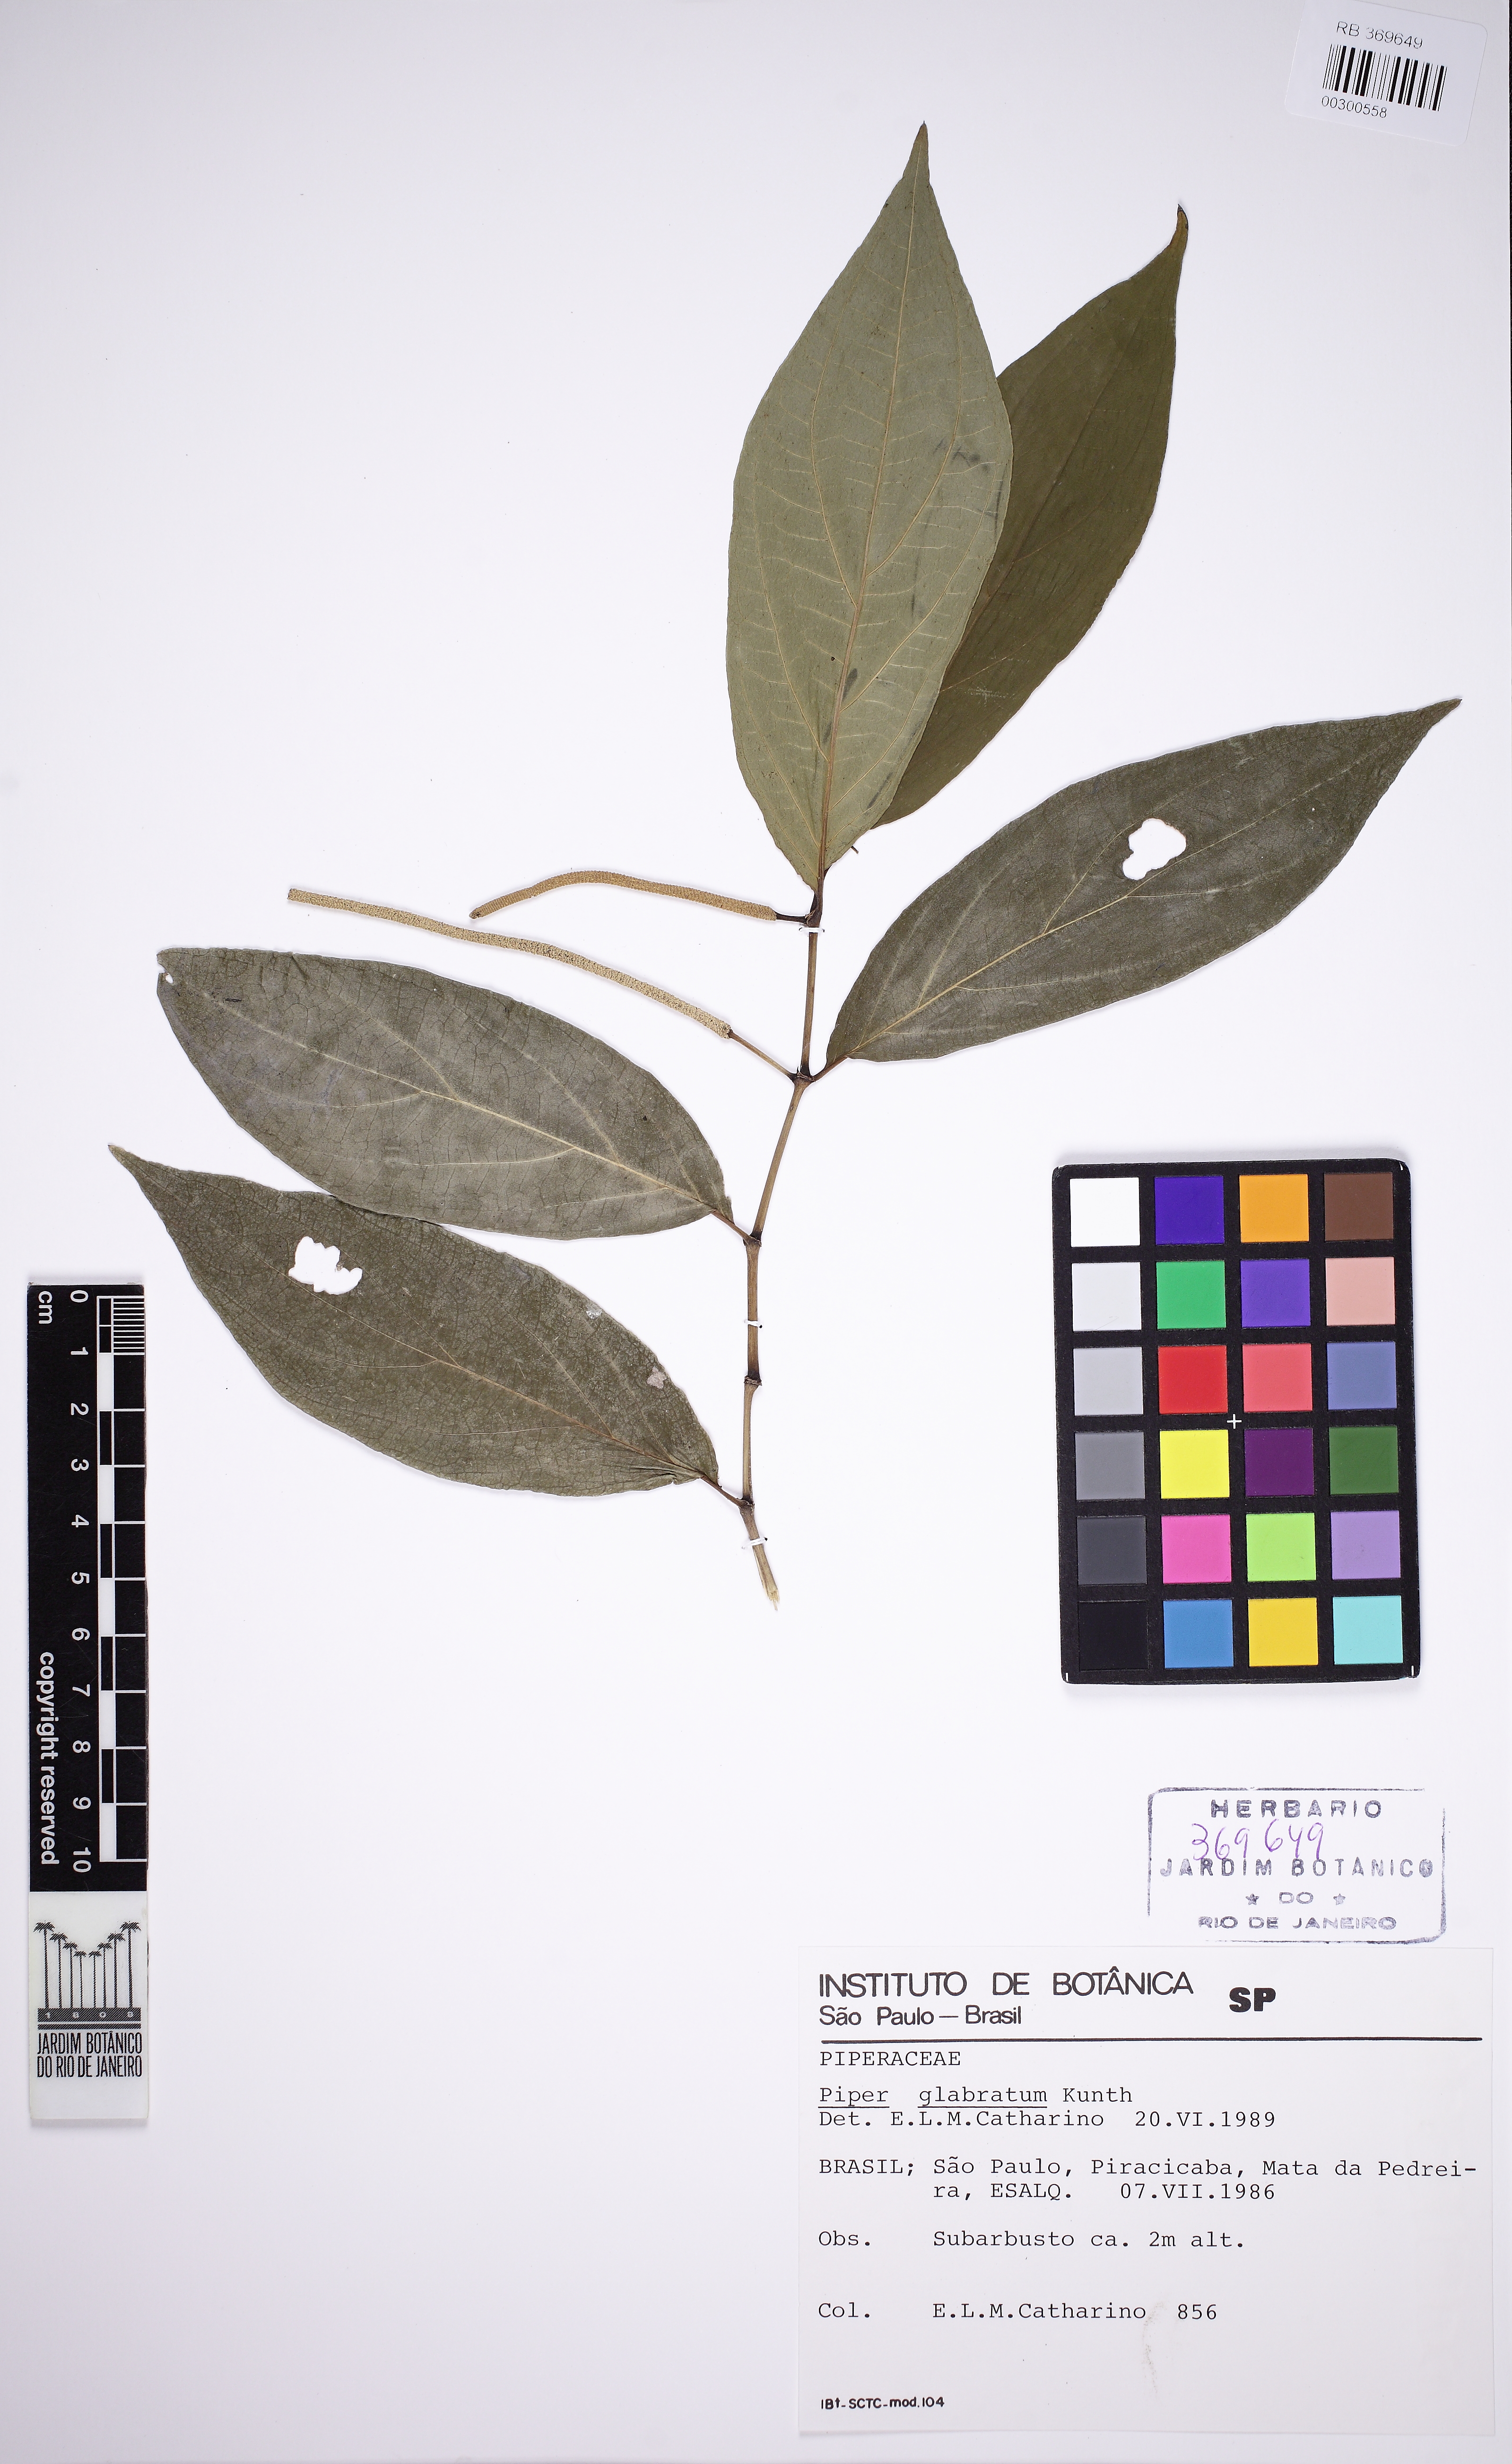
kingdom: Plantae
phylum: Tracheophyta
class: Magnoliopsida
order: Piperales
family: Piperaceae
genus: Piper
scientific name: Piper glabratum
